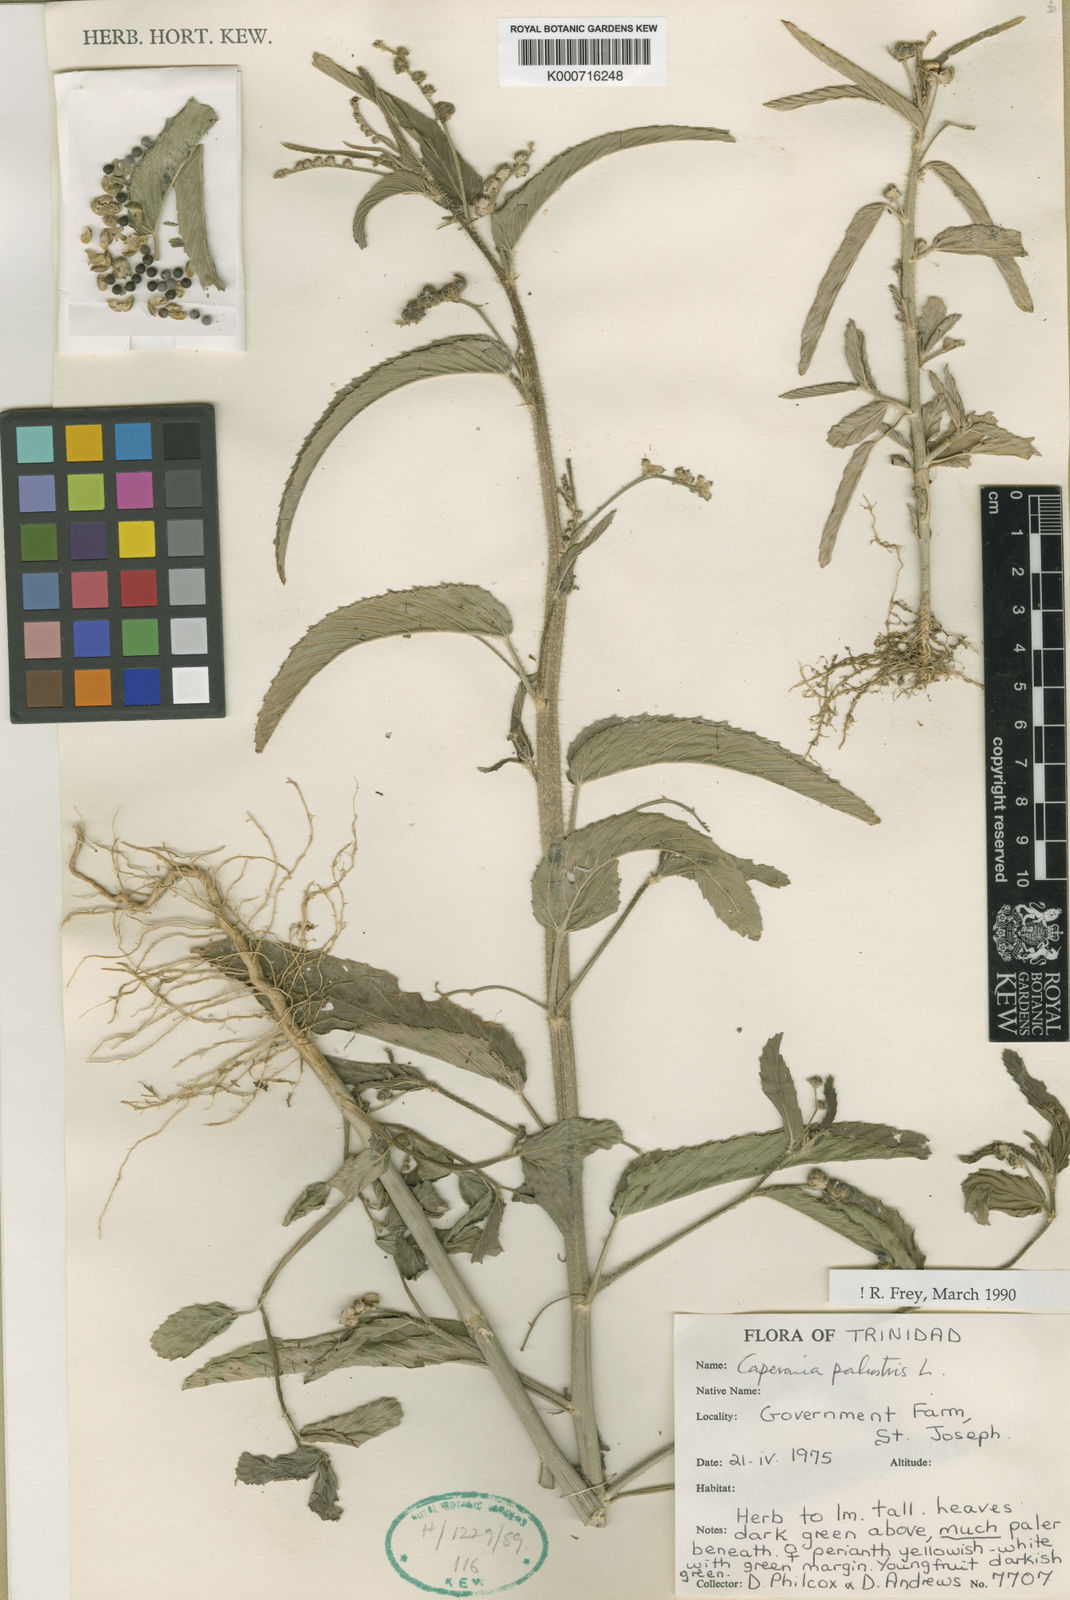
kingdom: Plantae
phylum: Tracheophyta
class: Magnoliopsida
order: Malpighiales
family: Euphorbiaceae
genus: Caperonia
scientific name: Caperonia palustris
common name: Sacatrapo
